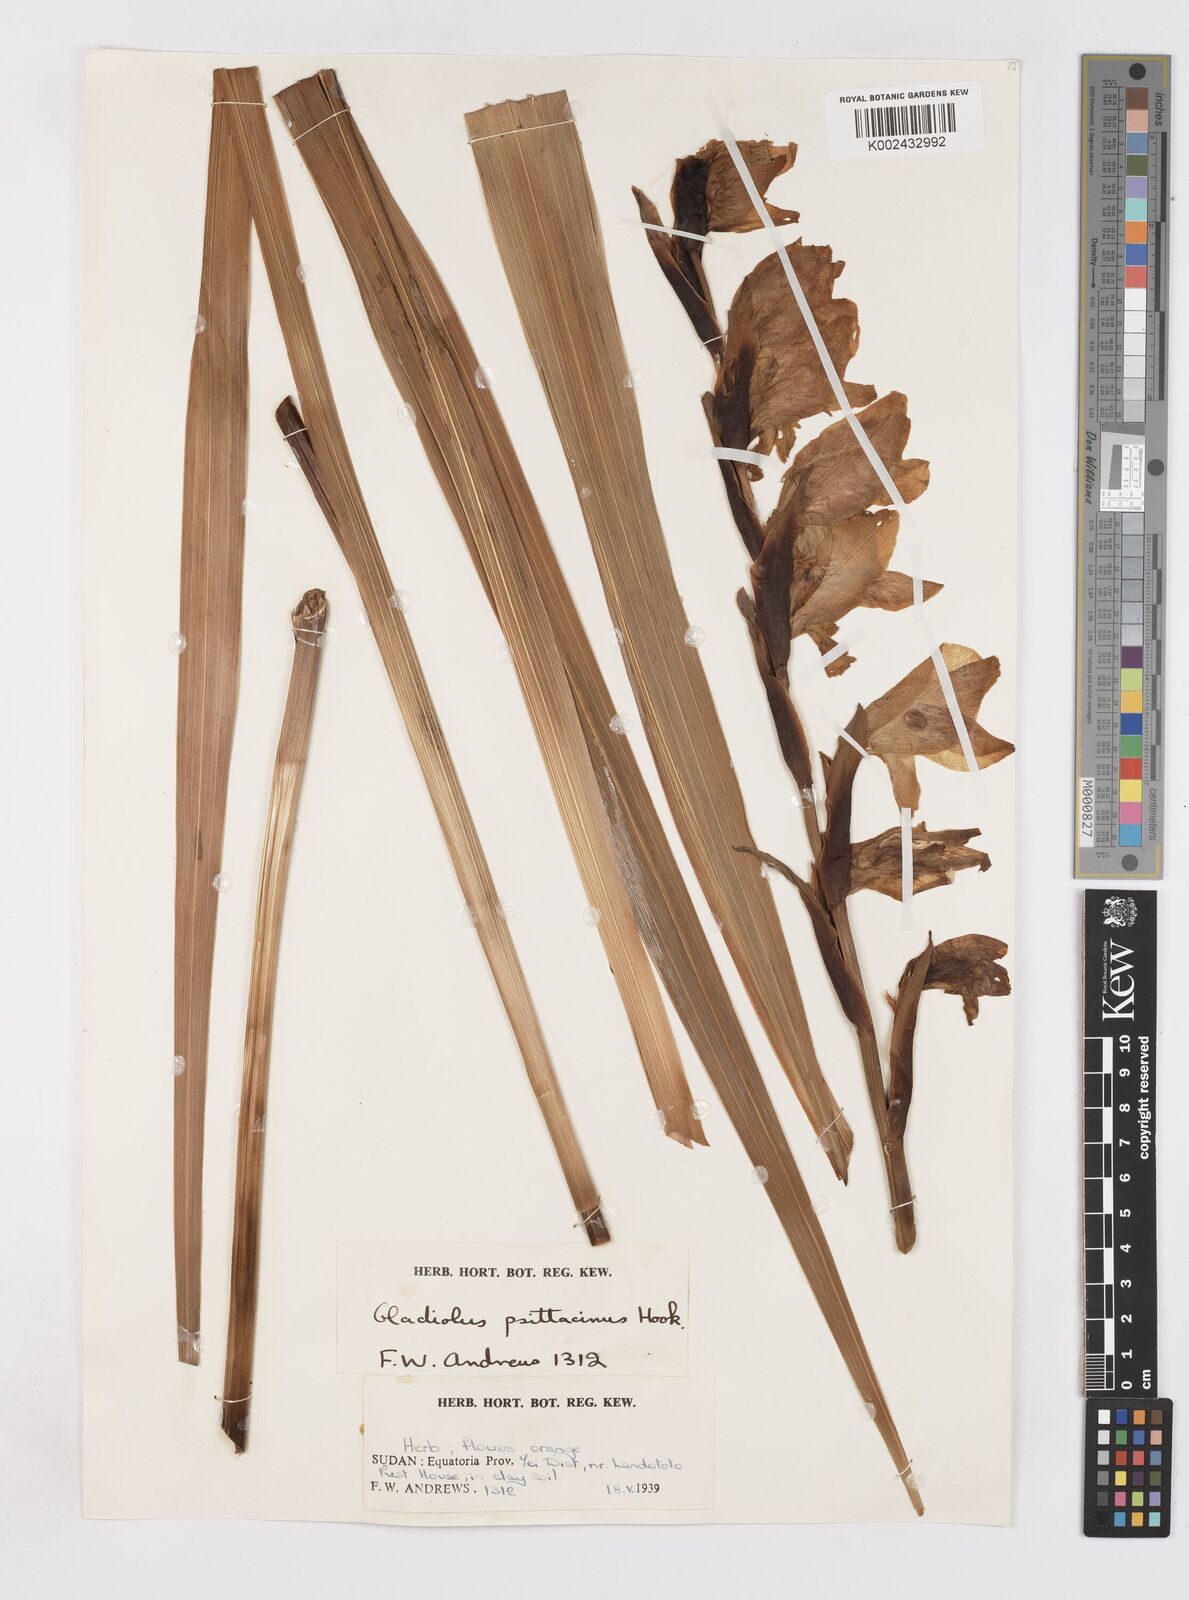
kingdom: Plantae
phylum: Tracheophyta
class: Liliopsida
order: Asparagales
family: Iridaceae
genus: Gladiolus
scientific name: Gladiolus dalenii
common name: Cornflag
